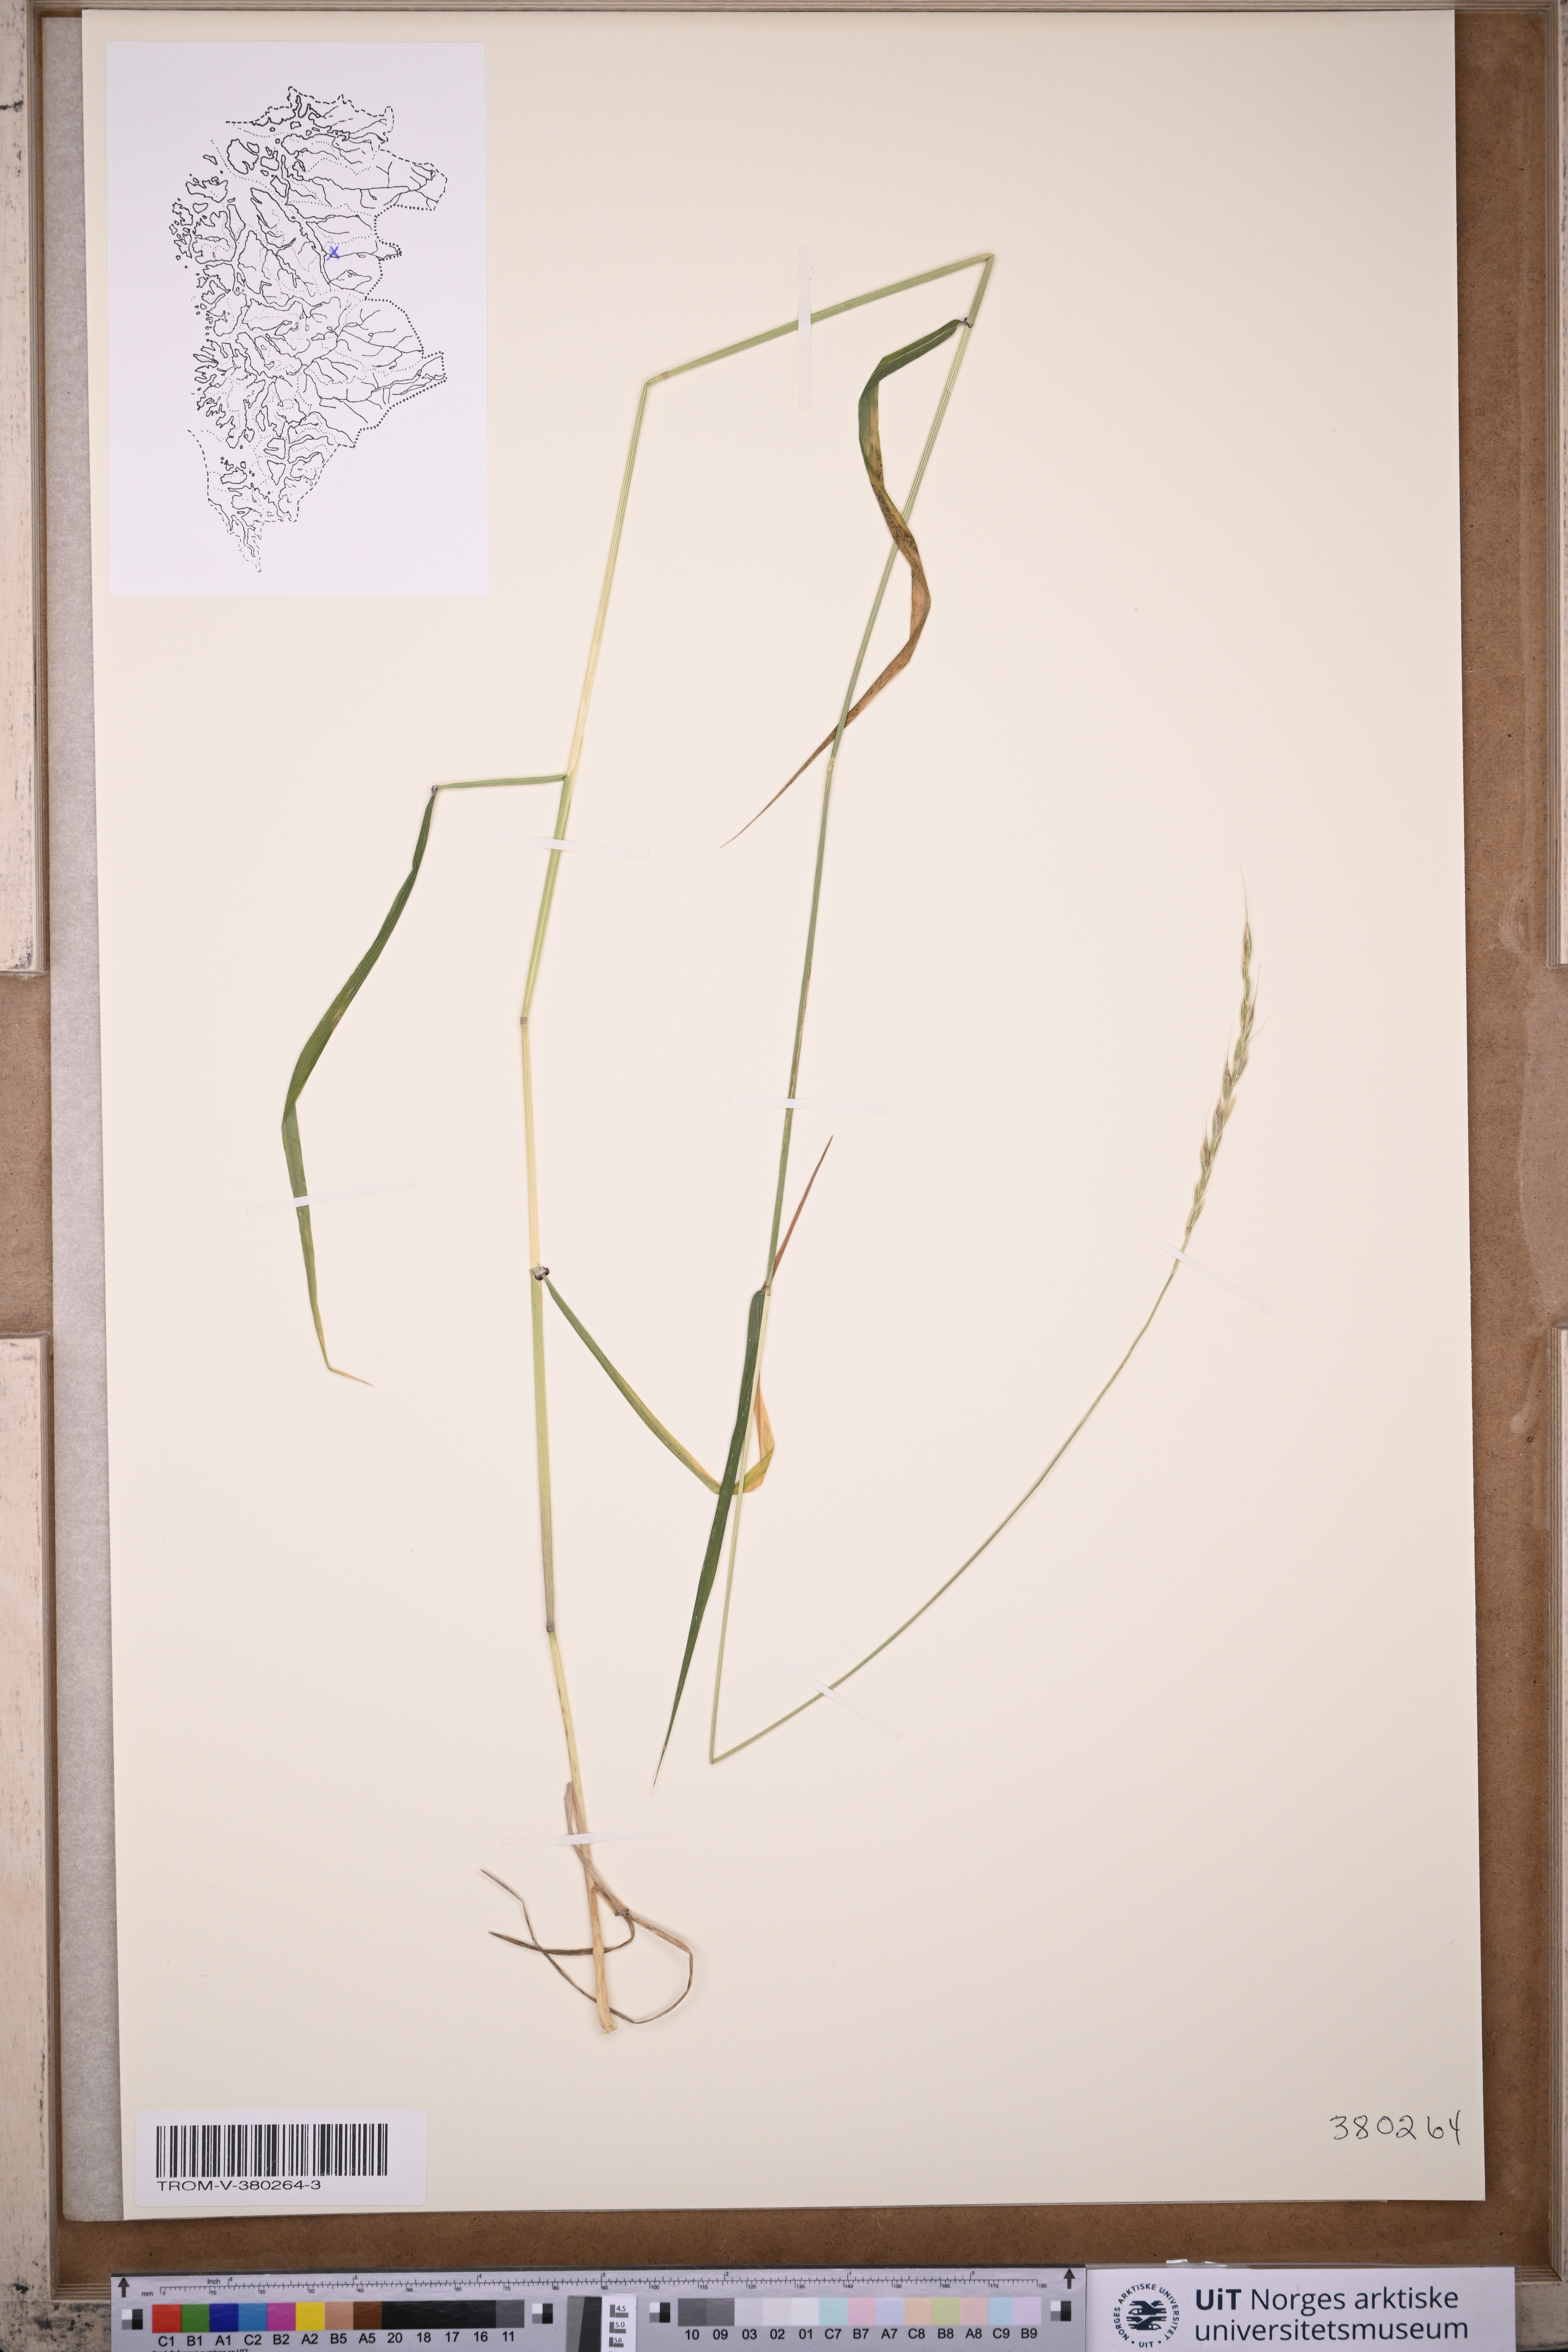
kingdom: Plantae
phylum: Tracheophyta
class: Liliopsida
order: Poales
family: Poaceae
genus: Elymus
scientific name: Elymus caninus
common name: Bearded couch
